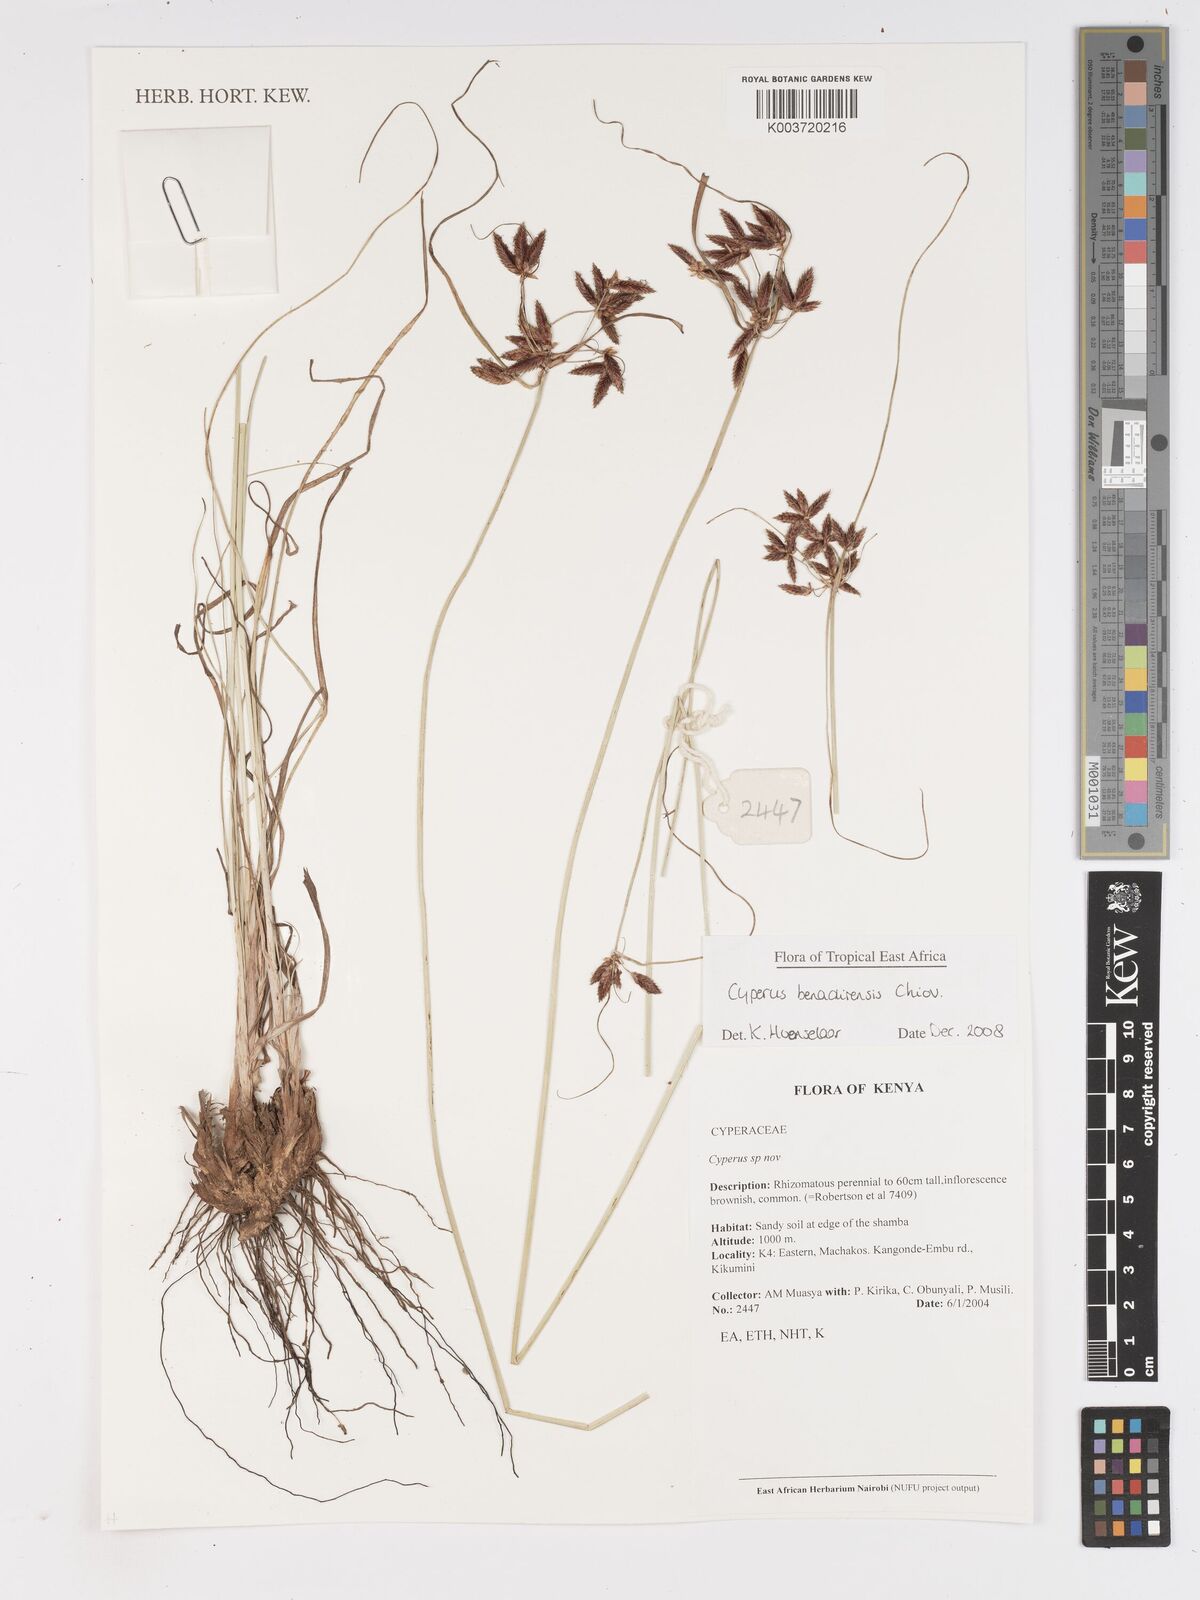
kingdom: Plantae
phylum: Tracheophyta
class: Liliopsida
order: Poales
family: Cyperaceae
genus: Cyperus
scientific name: Cyperus benadirensis
